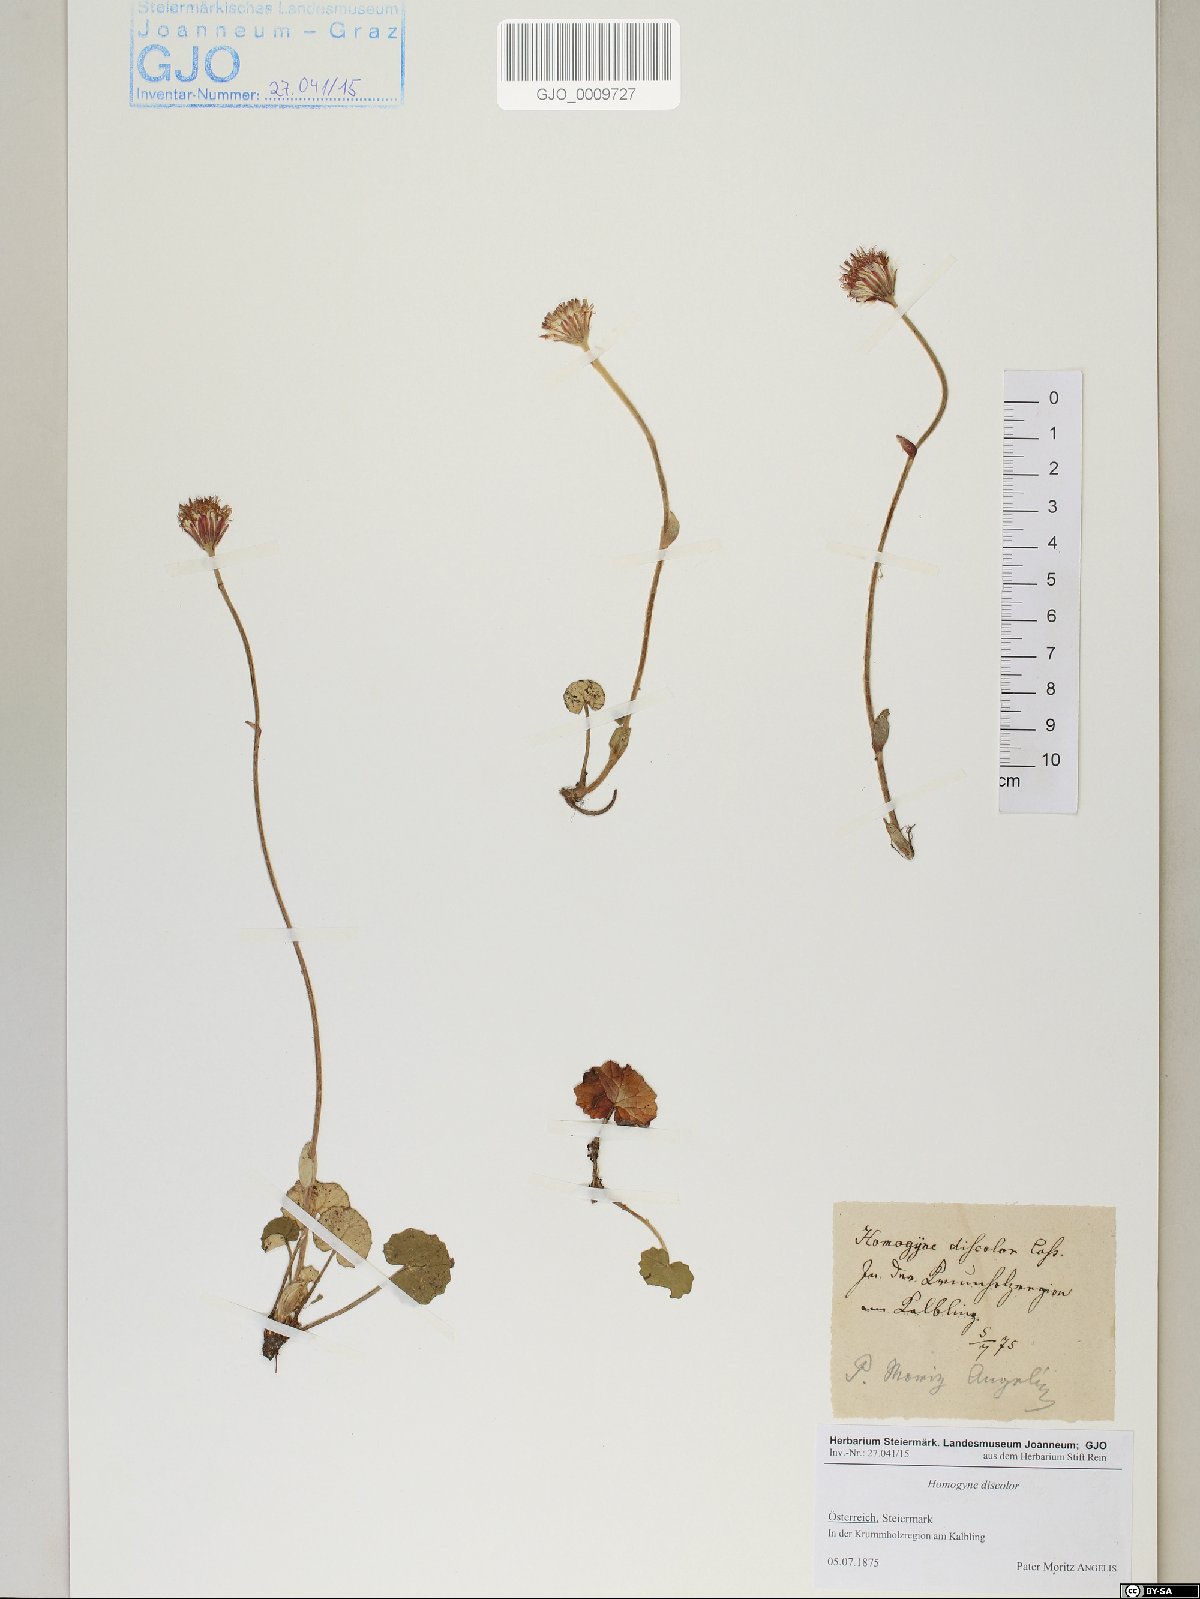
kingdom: Plantae
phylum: Tracheophyta
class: Magnoliopsida
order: Asterales
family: Asteraceae
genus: Homogyne
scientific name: Homogyne discolor
